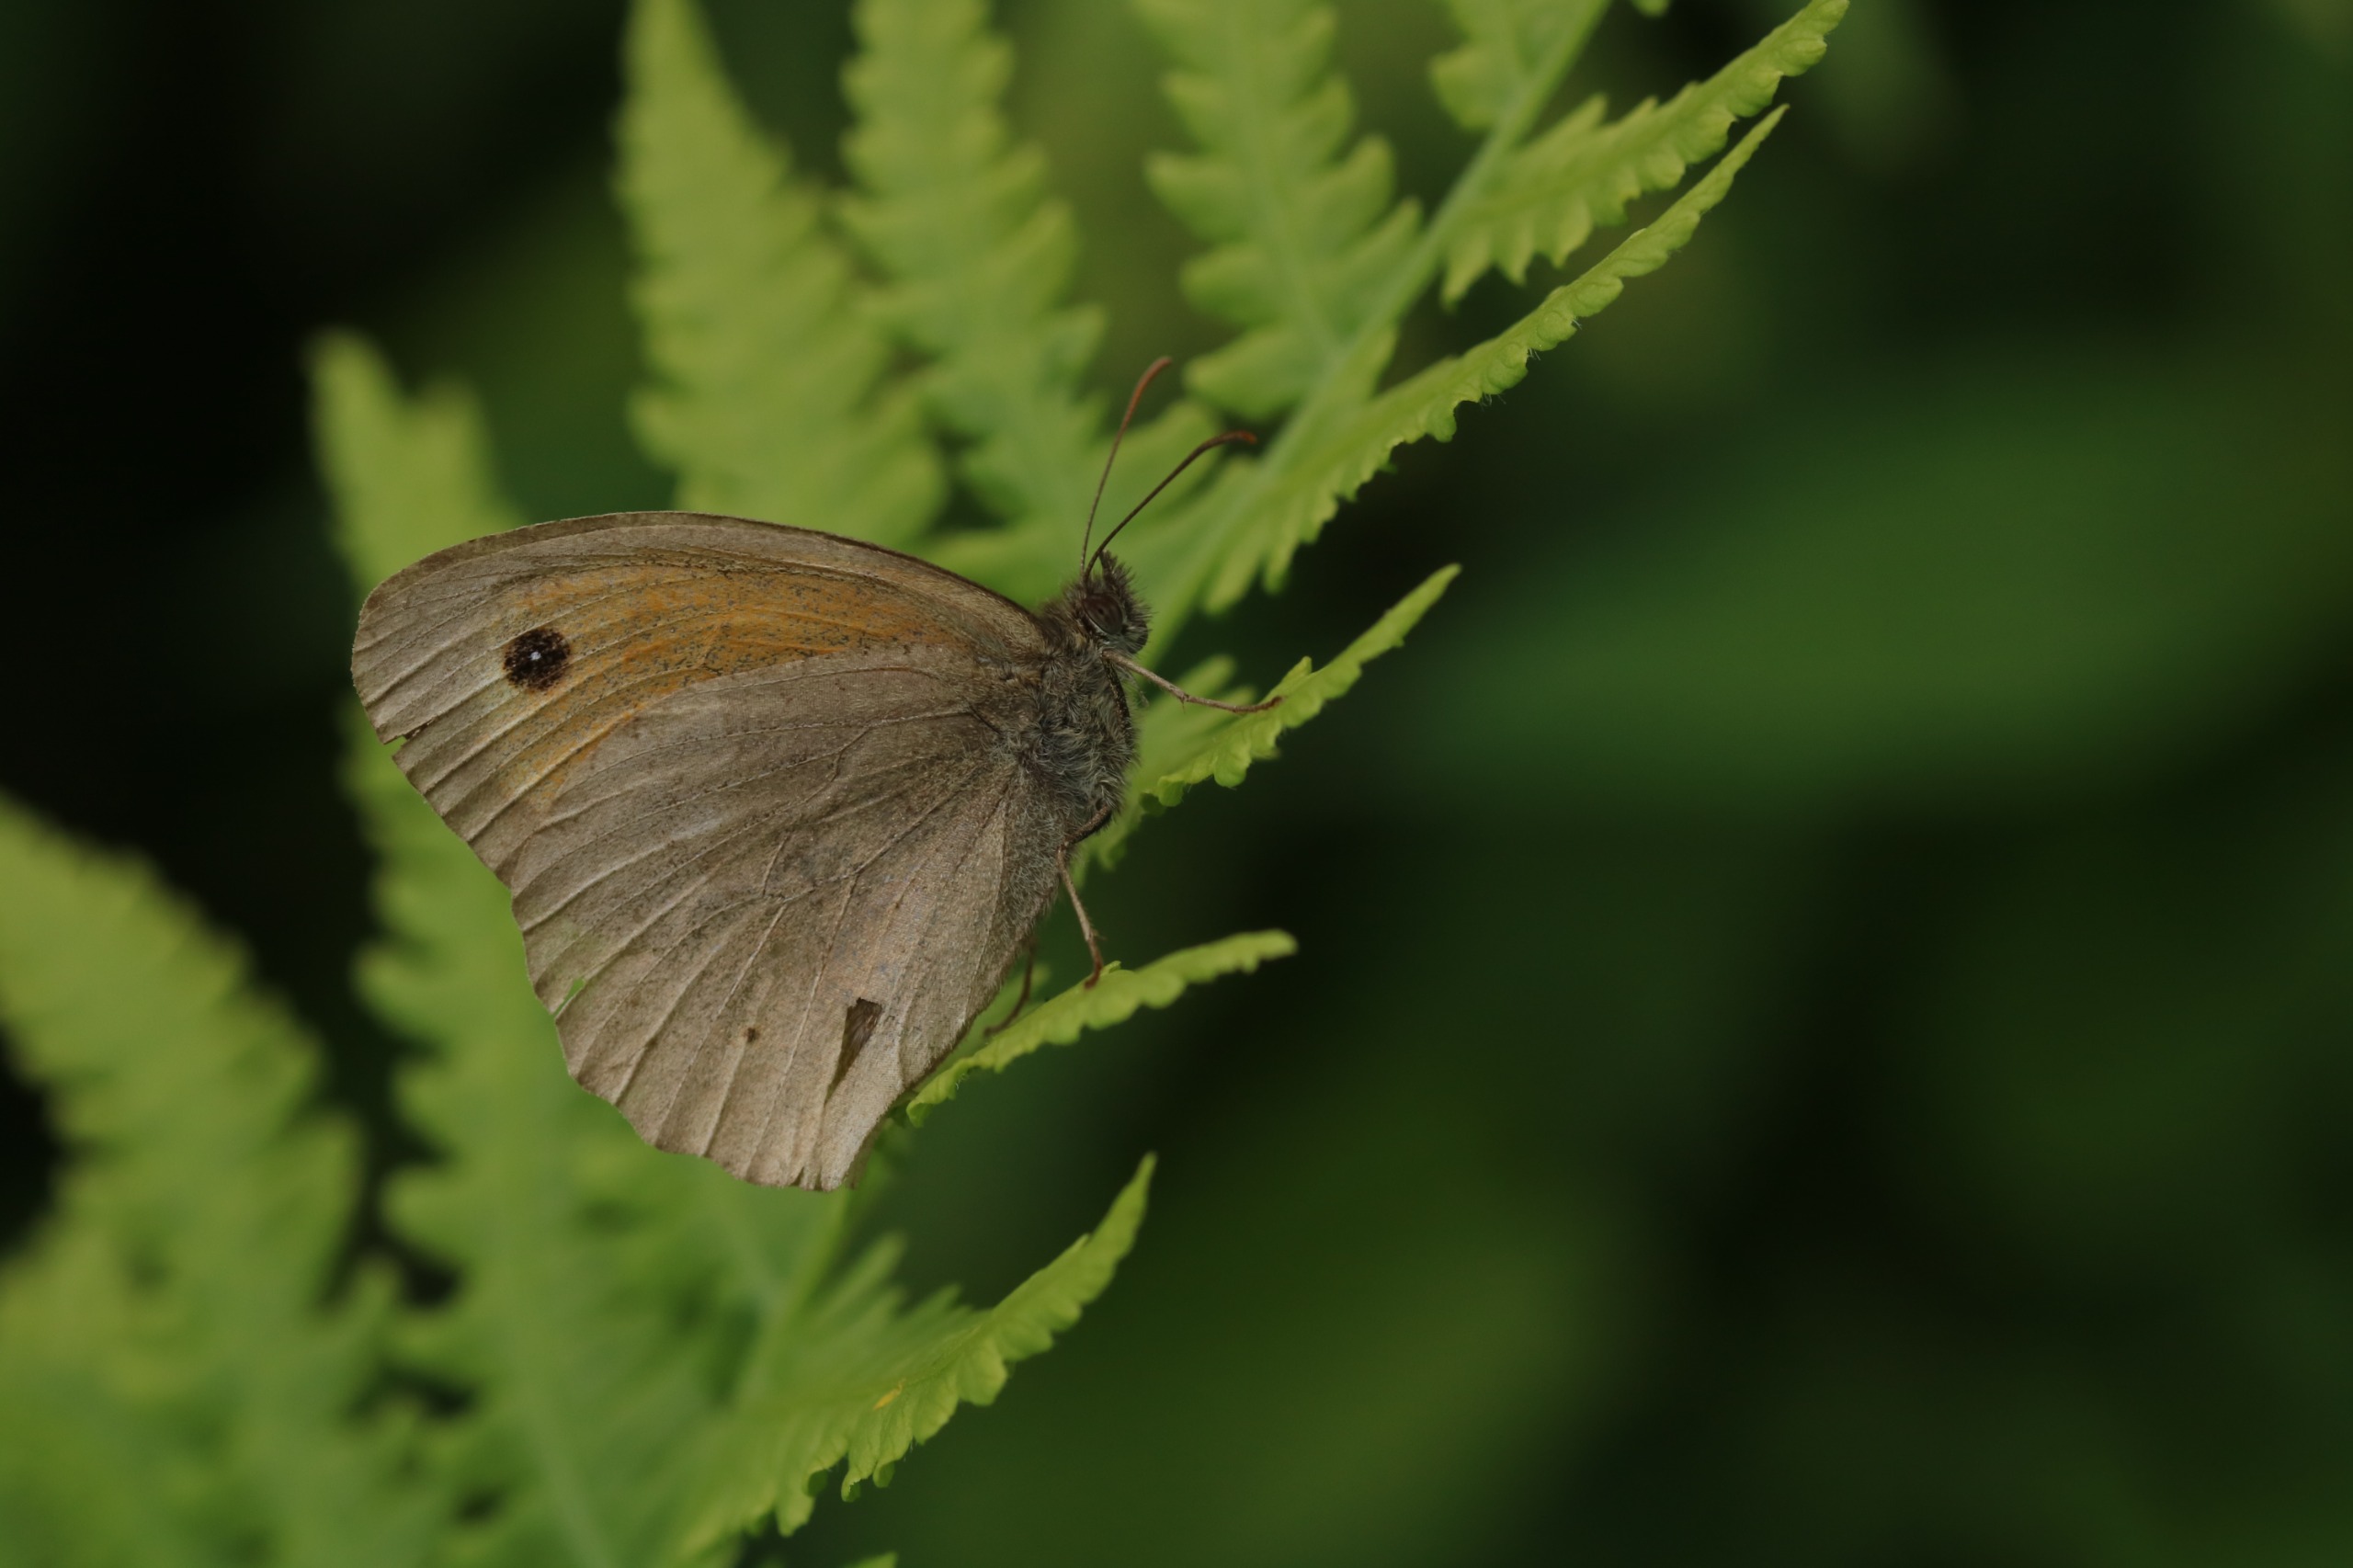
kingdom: Animalia
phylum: Arthropoda
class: Insecta
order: Lepidoptera
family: Nymphalidae
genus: Maniola
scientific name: Maniola jurtina
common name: Græsrandøje
